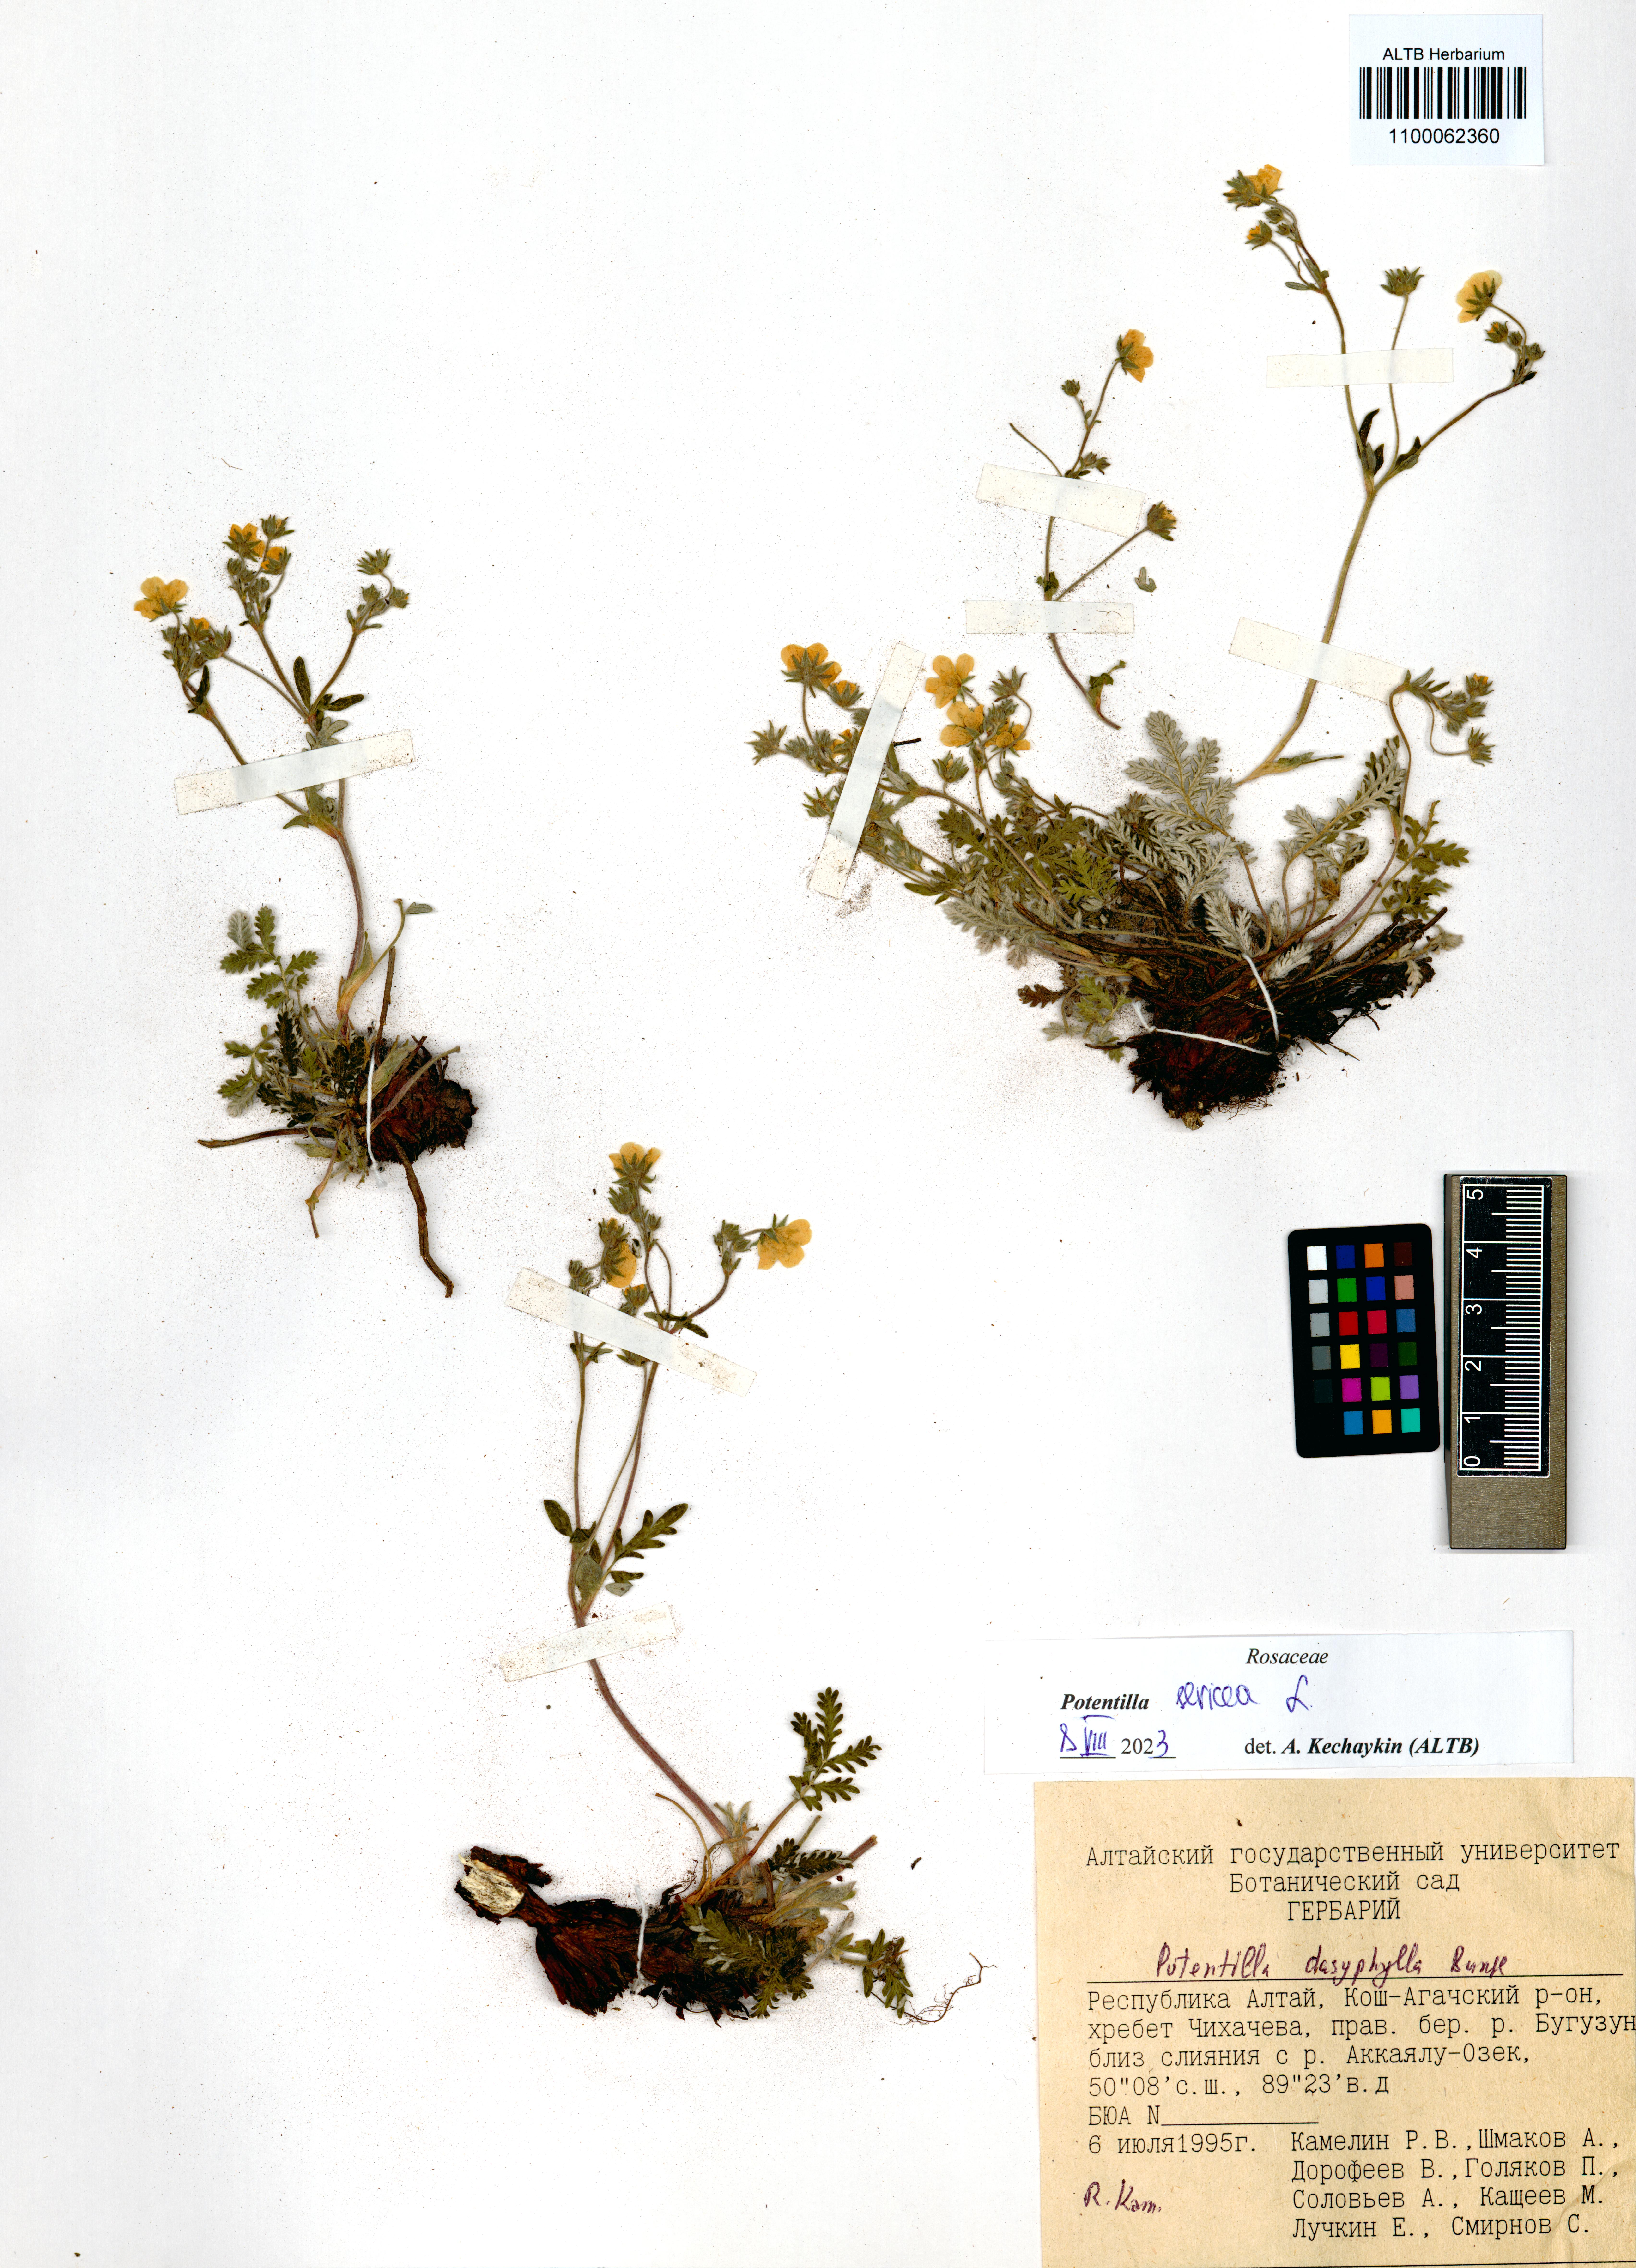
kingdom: Plantae
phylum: Tracheophyta
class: Magnoliopsida
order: Rosales
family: Rosaceae
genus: Potentilla
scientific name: Potentilla sericea
